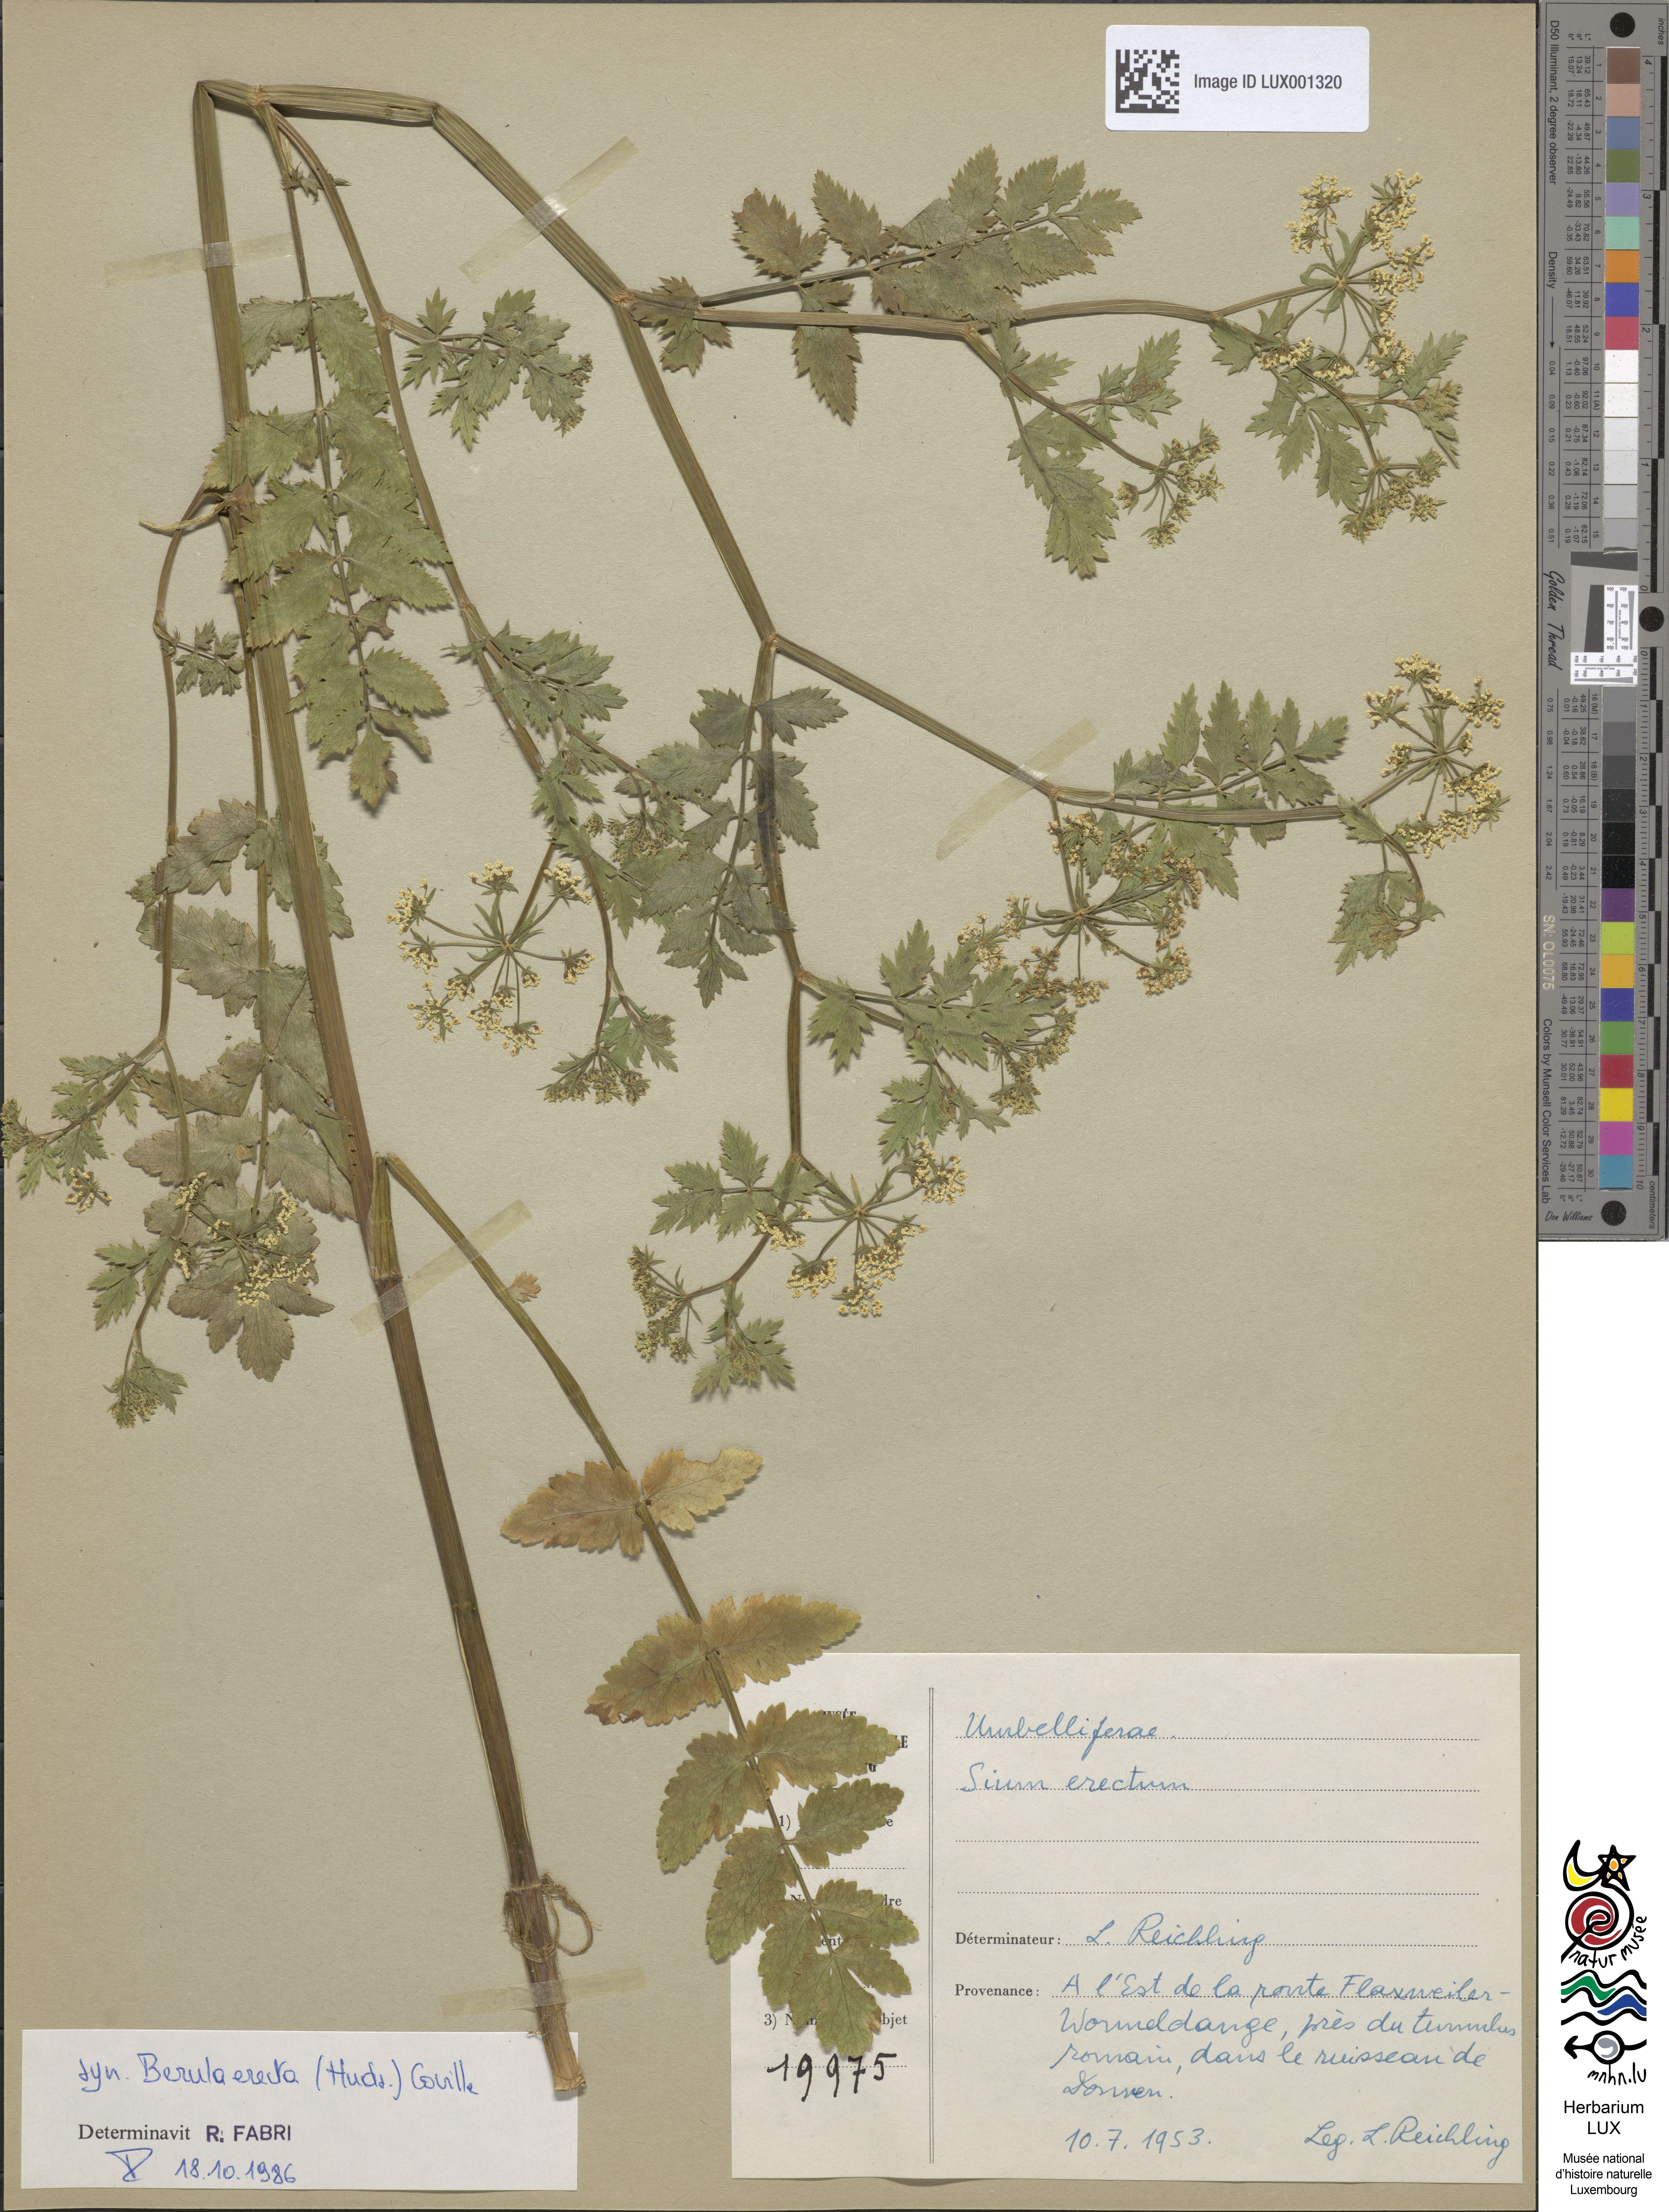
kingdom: Plantae
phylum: Tracheophyta
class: Magnoliopsida
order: Apiales
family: Apiaceae
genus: Berula
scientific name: Berula erecta
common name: Lesser water-parsnip
